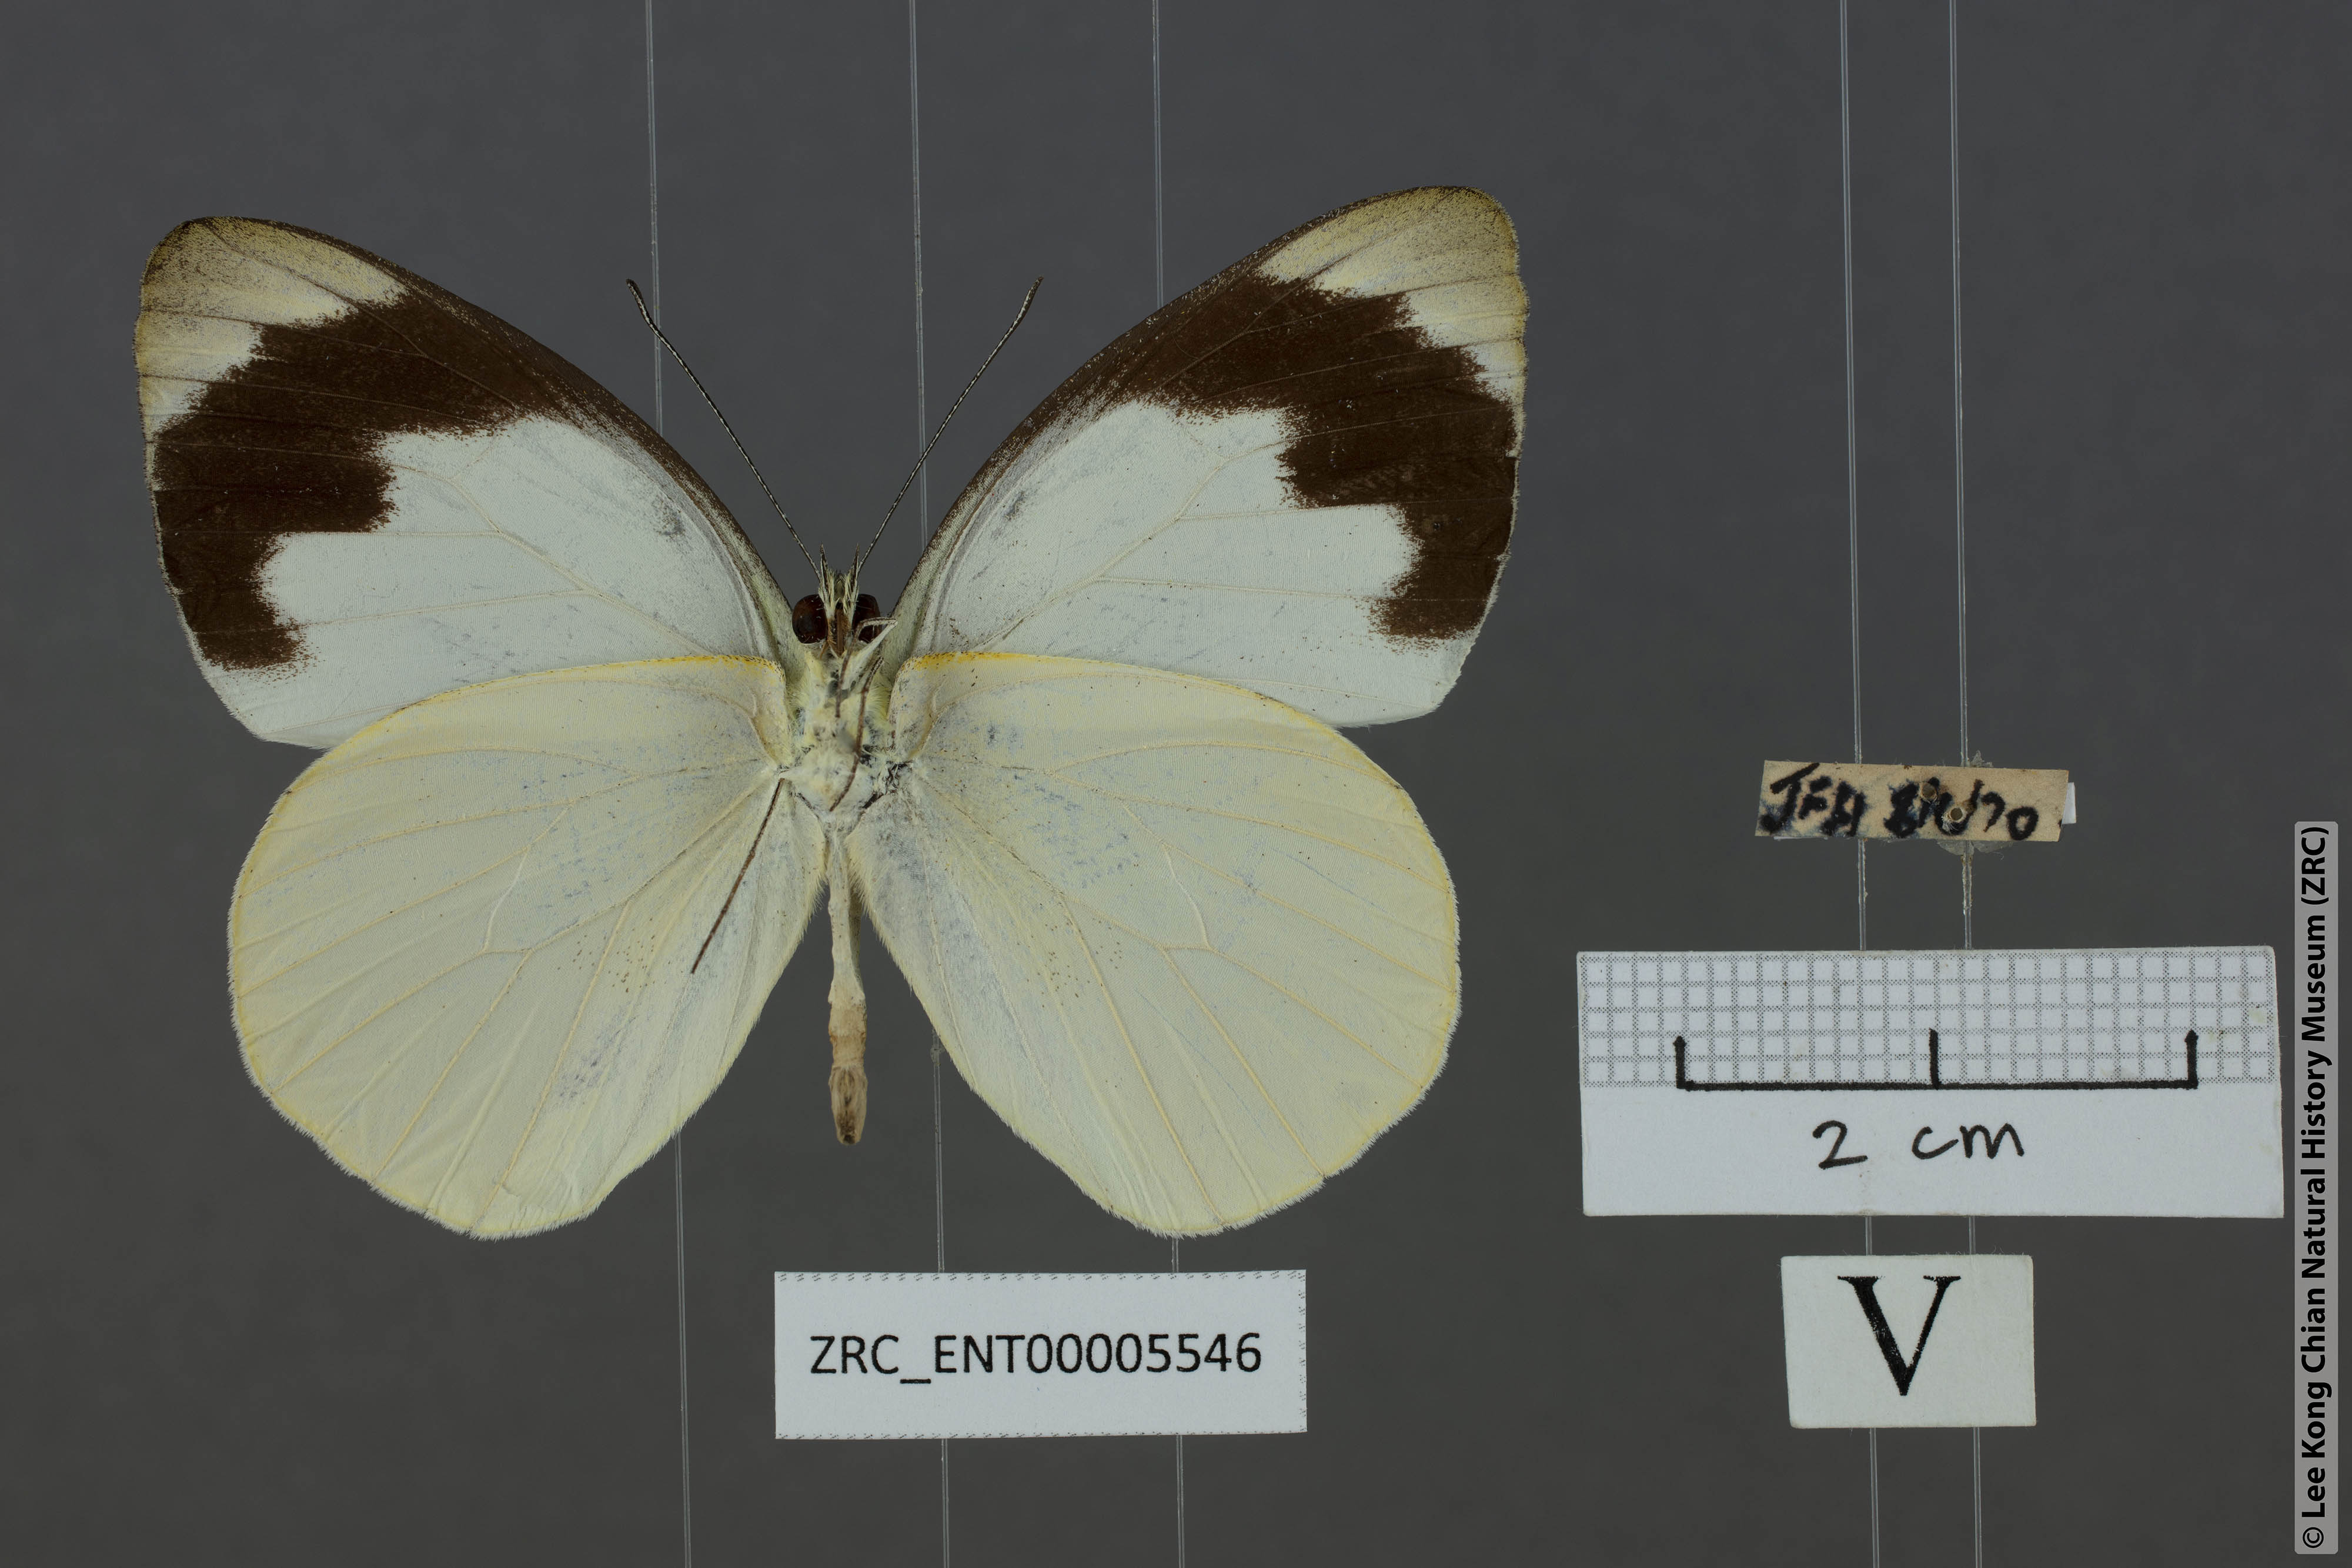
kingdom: Animalia
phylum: Arthropoda
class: Insecta
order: Lepidoptera
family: Pieridae
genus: Appias
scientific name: Appias indra
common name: Plain puffin
